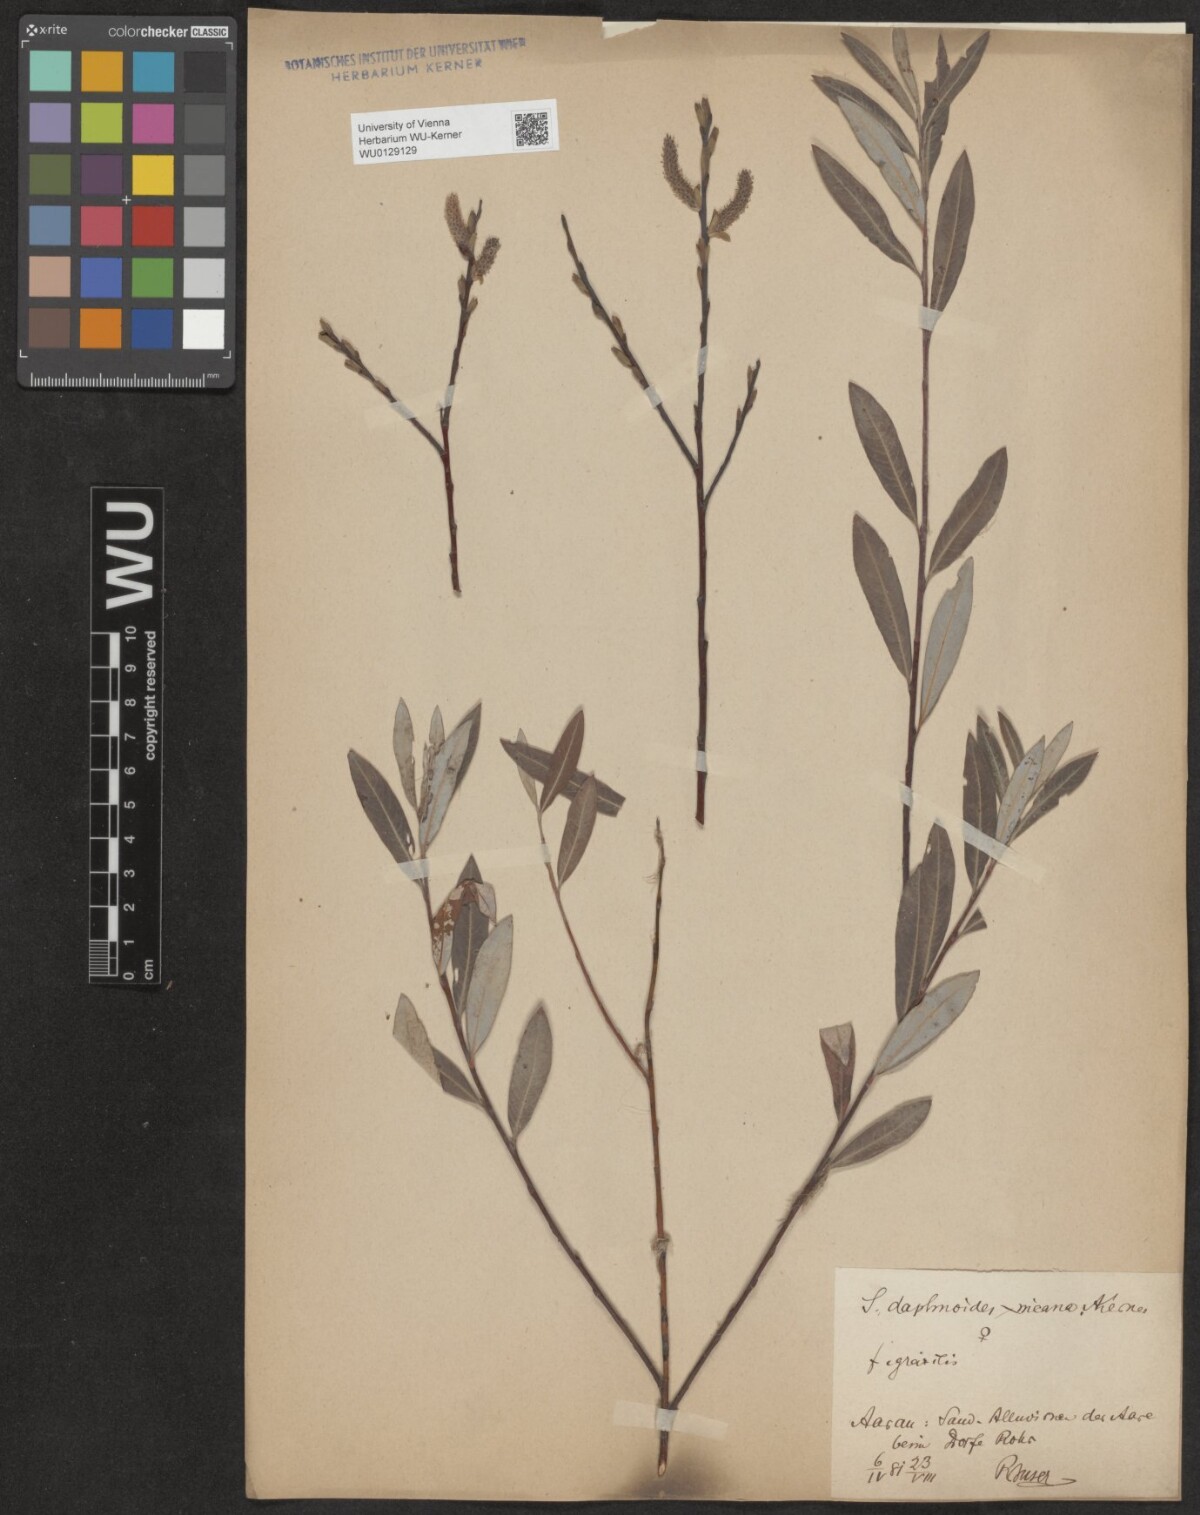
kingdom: Plantae
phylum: Tracheophyta
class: Magnoliopsida
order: Malpighiales
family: Salicaceae
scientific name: Salicaceae
